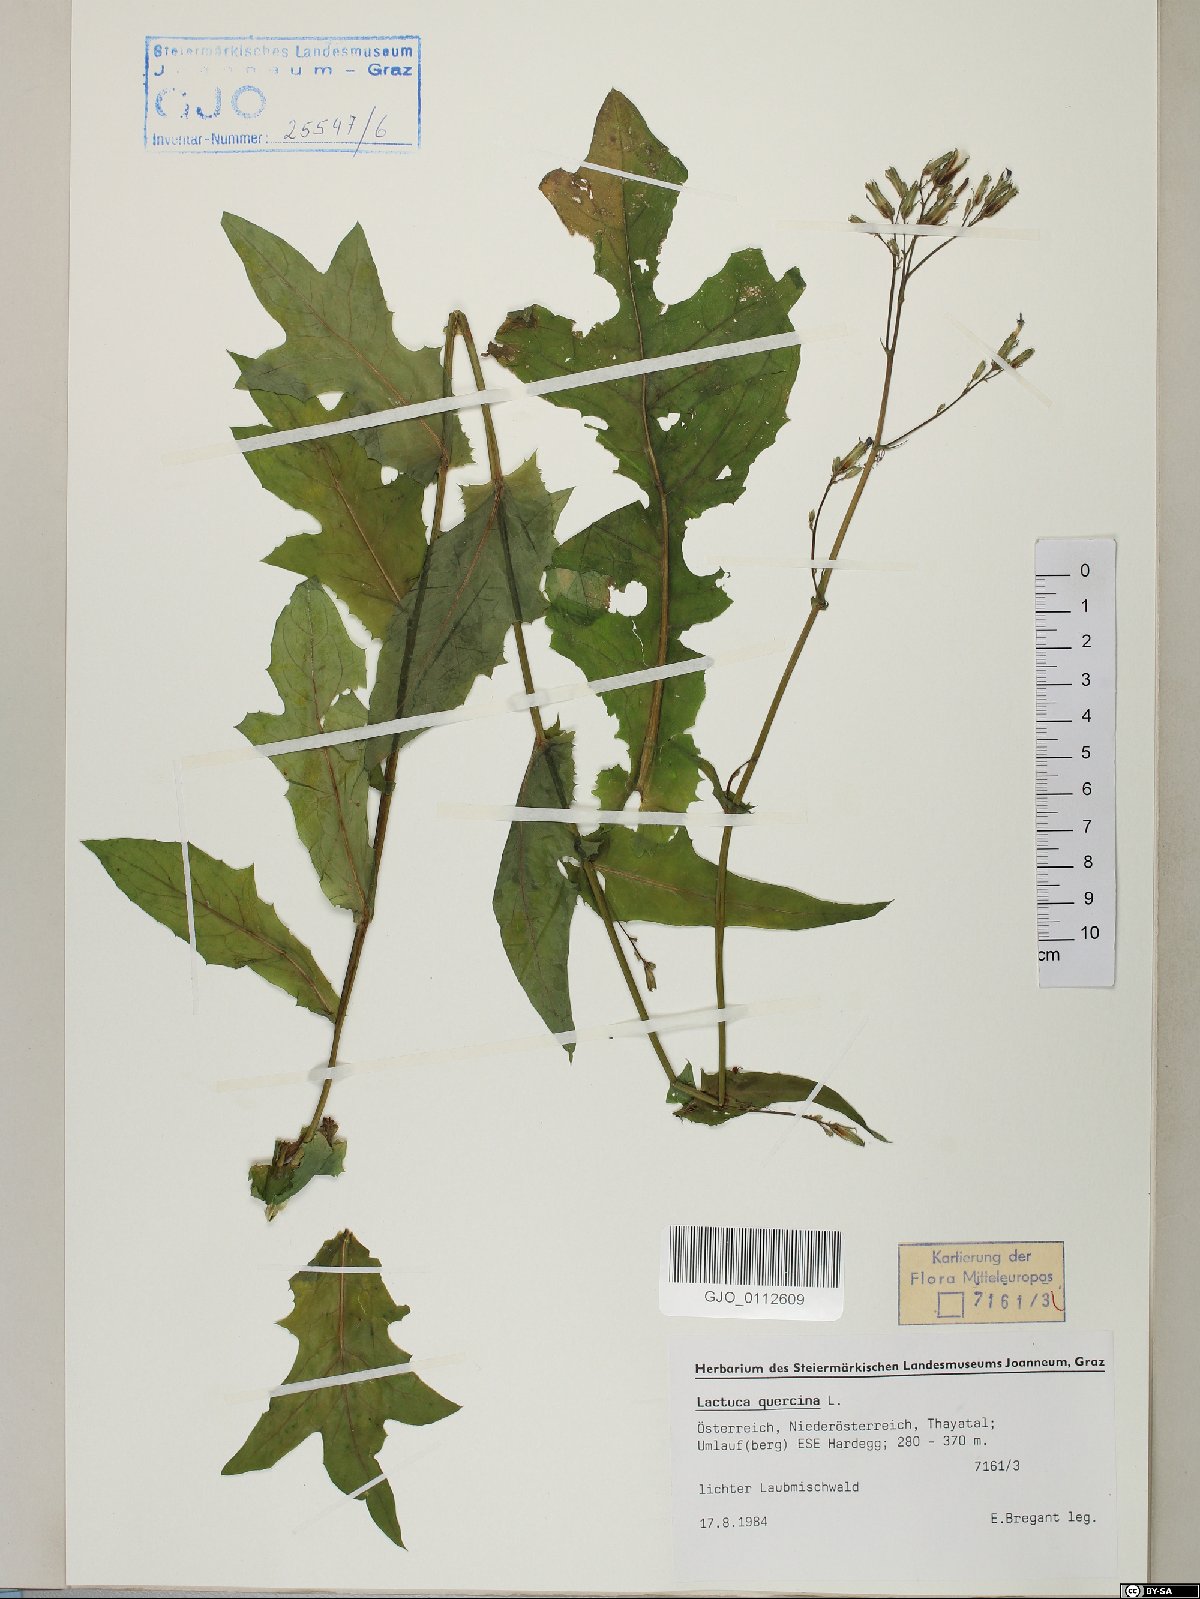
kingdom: Plantae
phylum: Tracheophyta
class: Magnoliopsida
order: Asterales
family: Asteraceae
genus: Lactuca
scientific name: Lactuca quercina
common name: Wild lettuce
